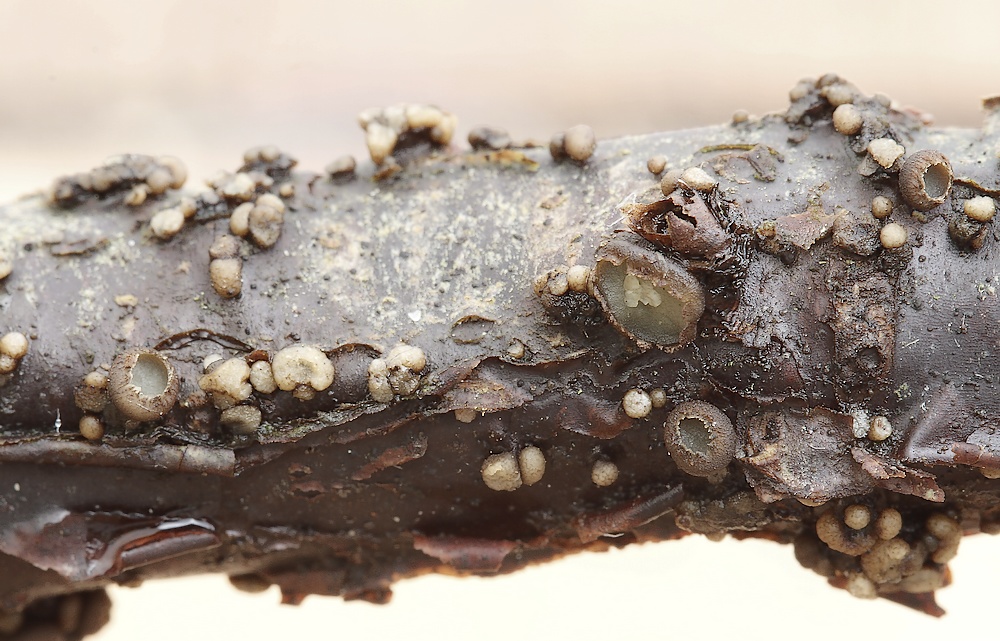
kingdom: Fungi
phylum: Ascomycota
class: Leotiomycetes
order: Helotiales
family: Godroniaceae
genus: Godronia
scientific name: Godronia ribis
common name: ribs-urneskive
